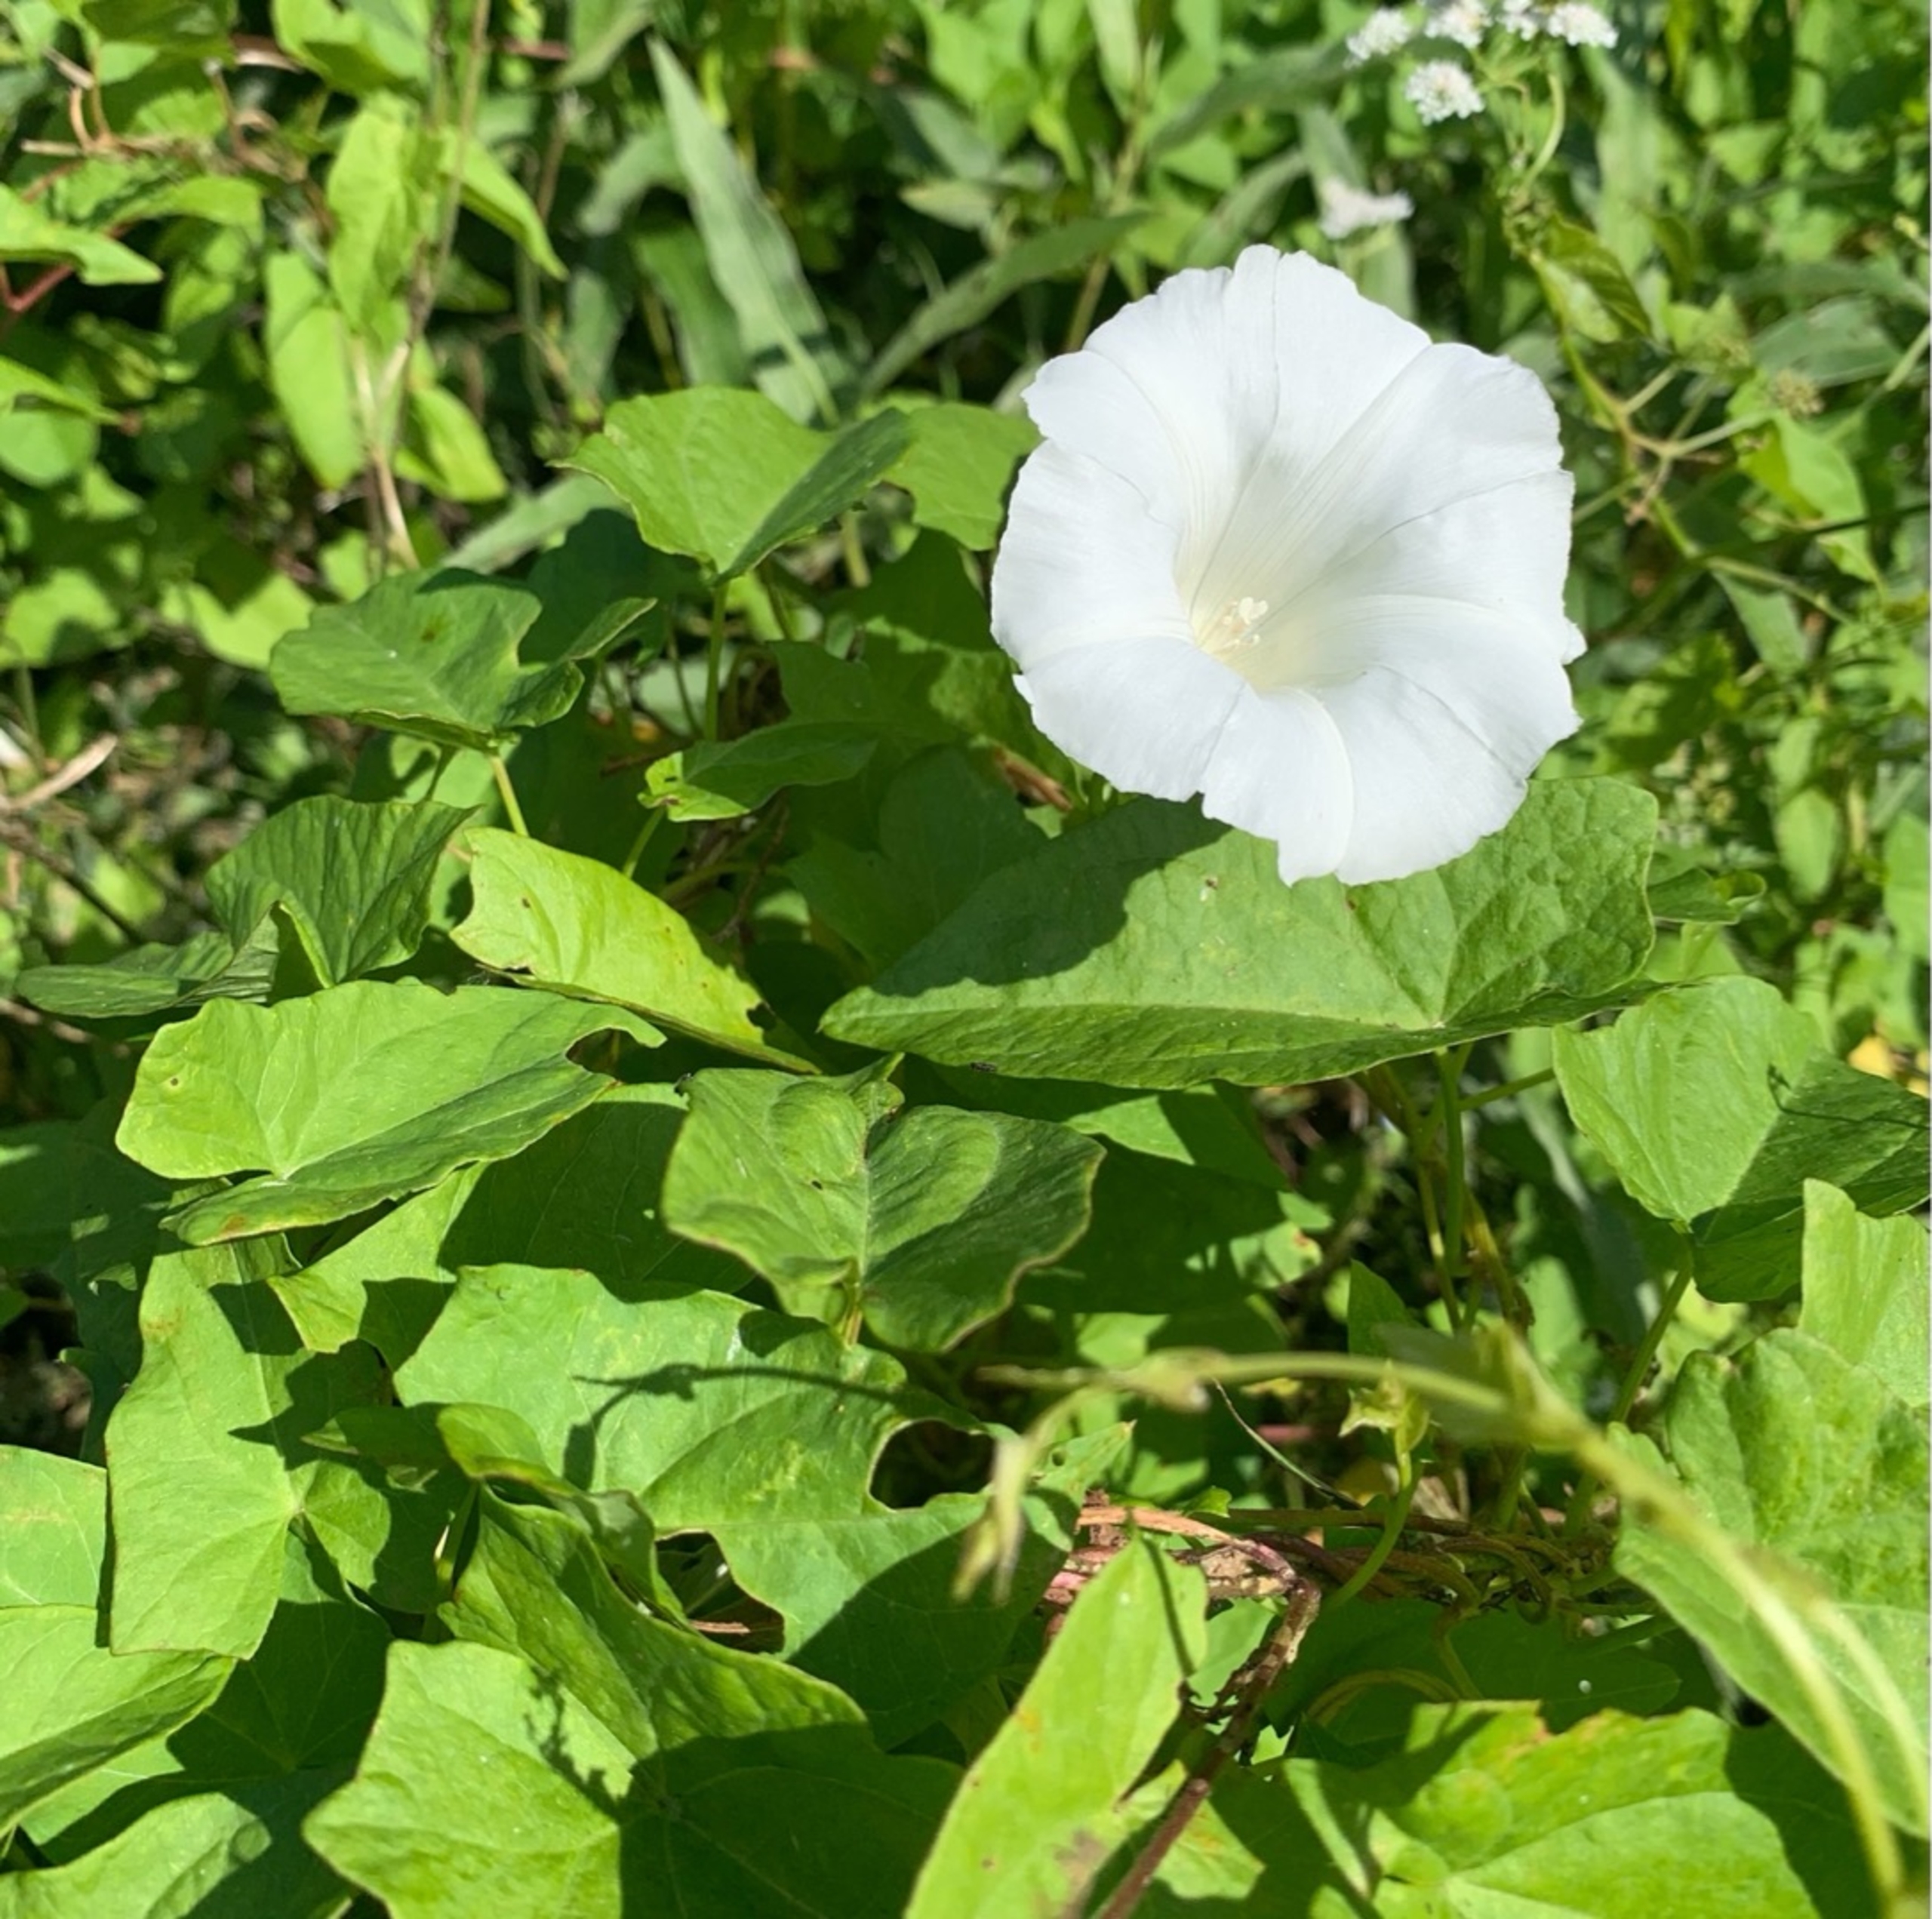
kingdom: Plantae
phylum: Tracheophyta
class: Magnoliopsida
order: Solanales
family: Convolvulaceae
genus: Calystegia
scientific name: Calystegia sepium
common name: Gærde-snerle
